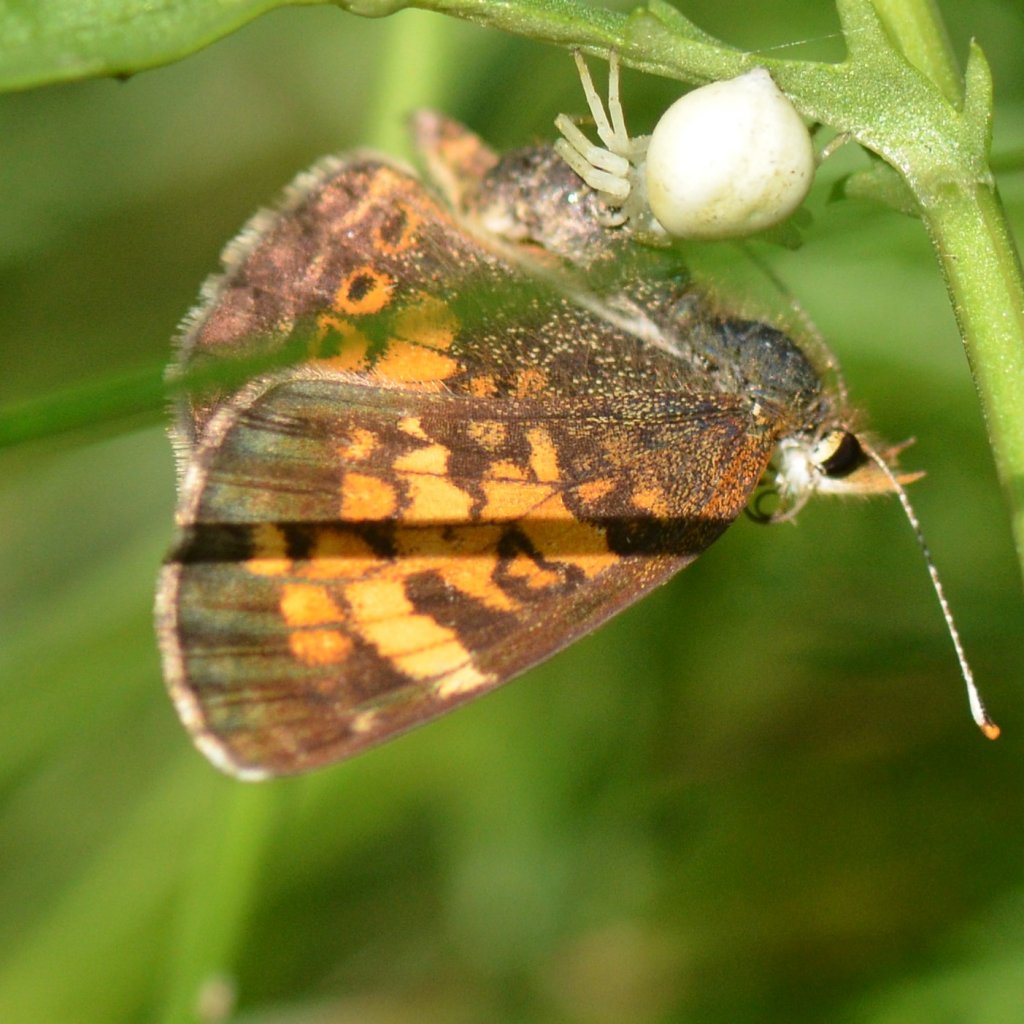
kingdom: Animalia
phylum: Arthropoda
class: Insecta
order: Lepidoptera
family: Nymphalidae
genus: Phyciodes
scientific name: Phyciodes tharos
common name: Northern Crescent
